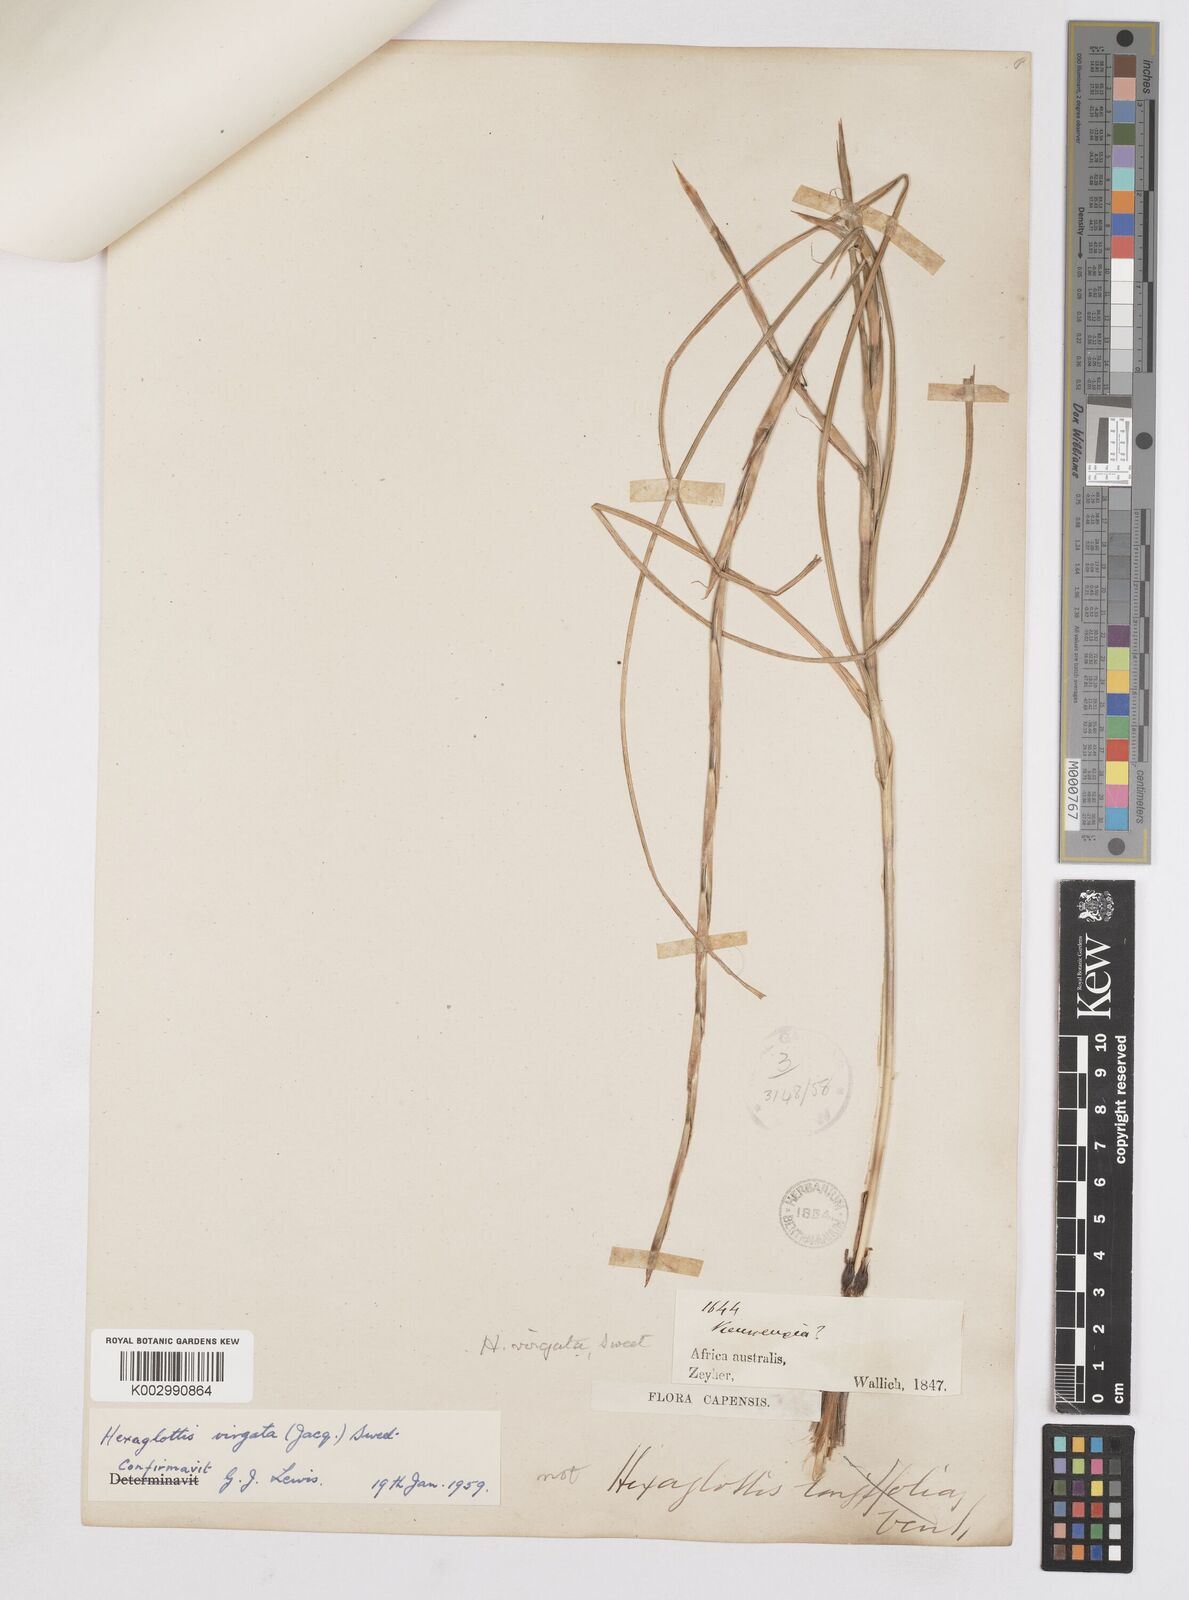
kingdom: Plantae
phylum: Tracheophyta
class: Liliopsida
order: Asparagales
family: Iridaceae
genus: Moraea
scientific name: Moraea virgata
